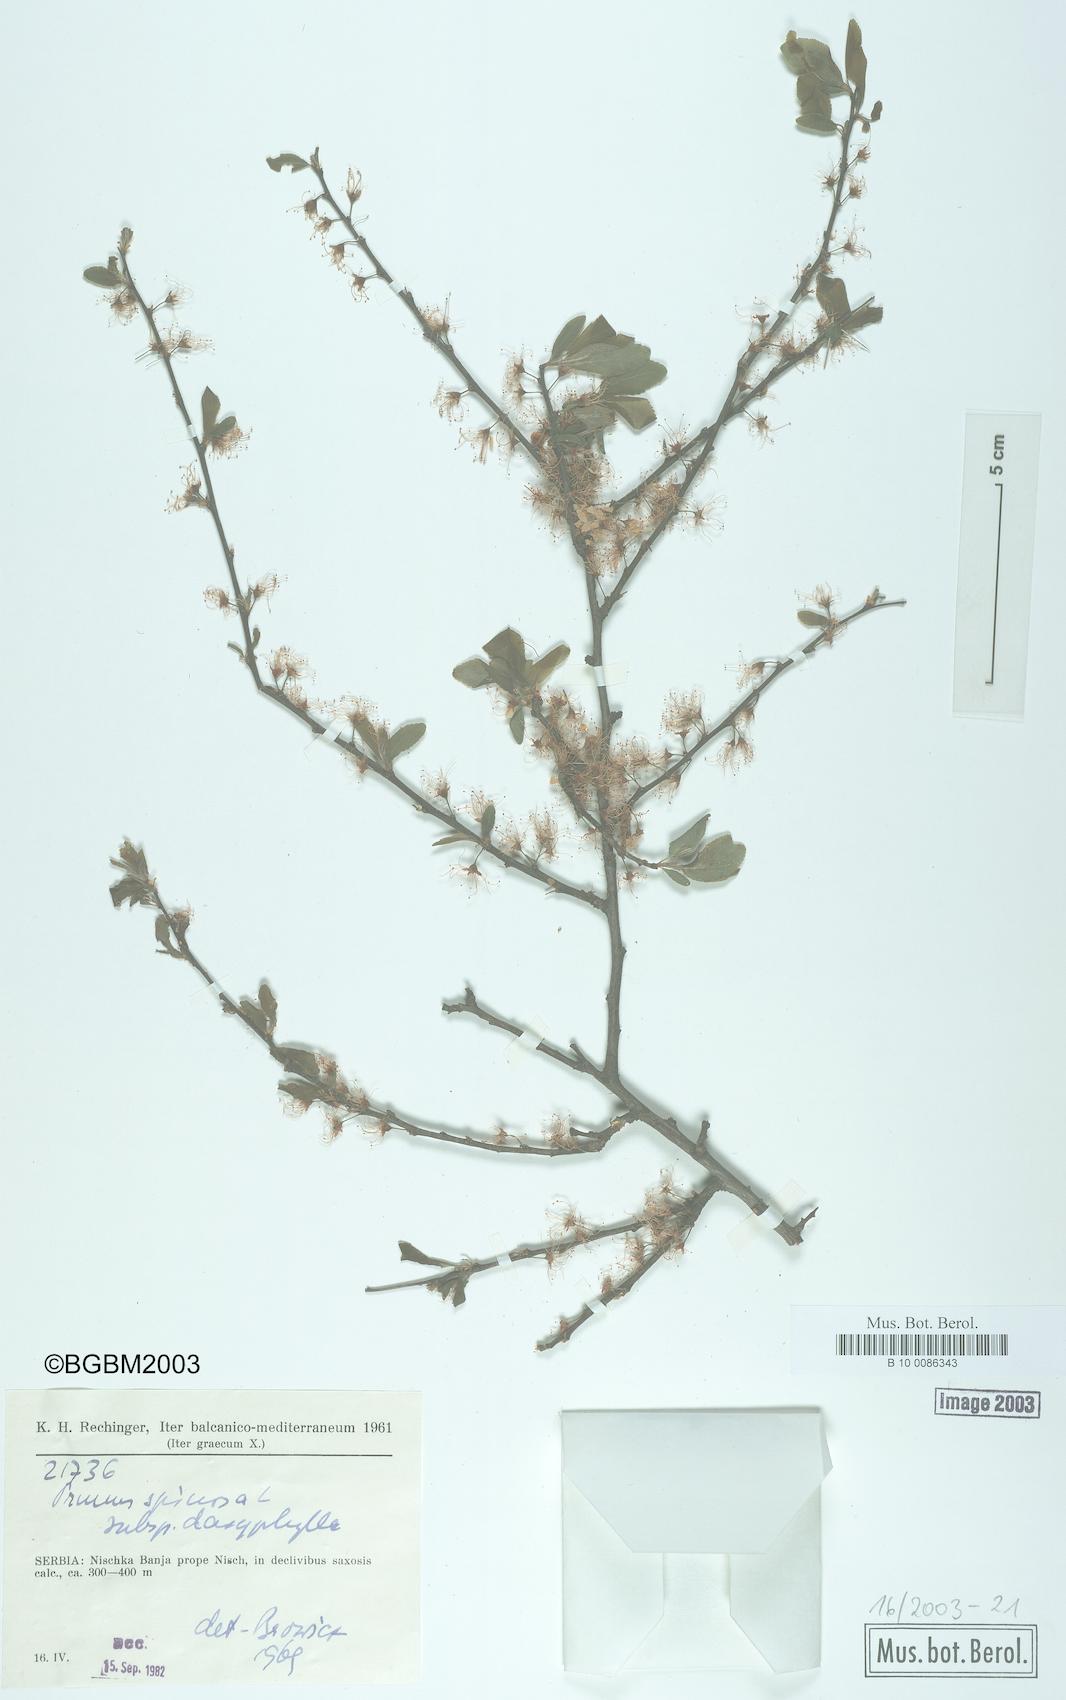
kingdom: Plantae
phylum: Tracheophyta
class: Magnoliopsida
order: Rosales
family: Rosaceae
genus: Prunus
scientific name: Prunus spinosa
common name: Blackthorn
